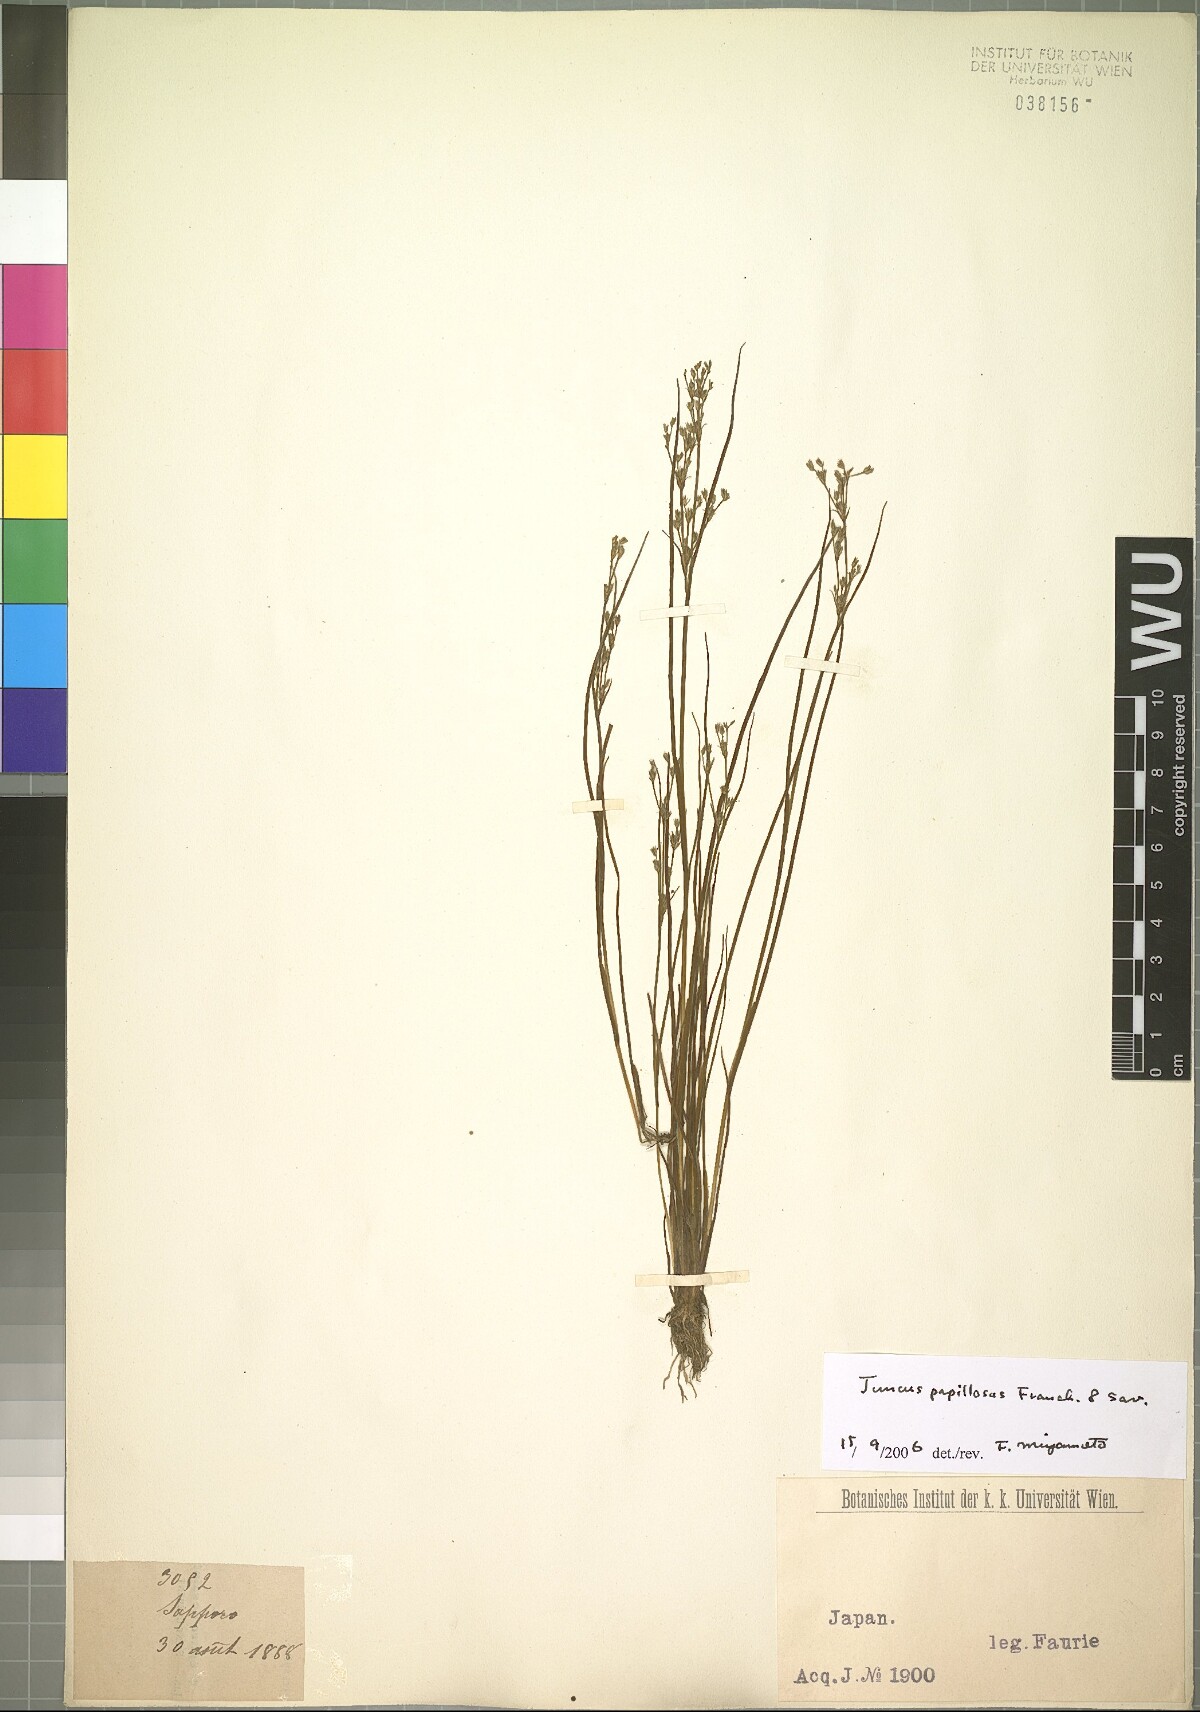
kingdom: Plantae
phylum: Tracheophyta
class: Liliopsida
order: Poales
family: Juncaceae
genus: Juncus
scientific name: Juncus papillosus
